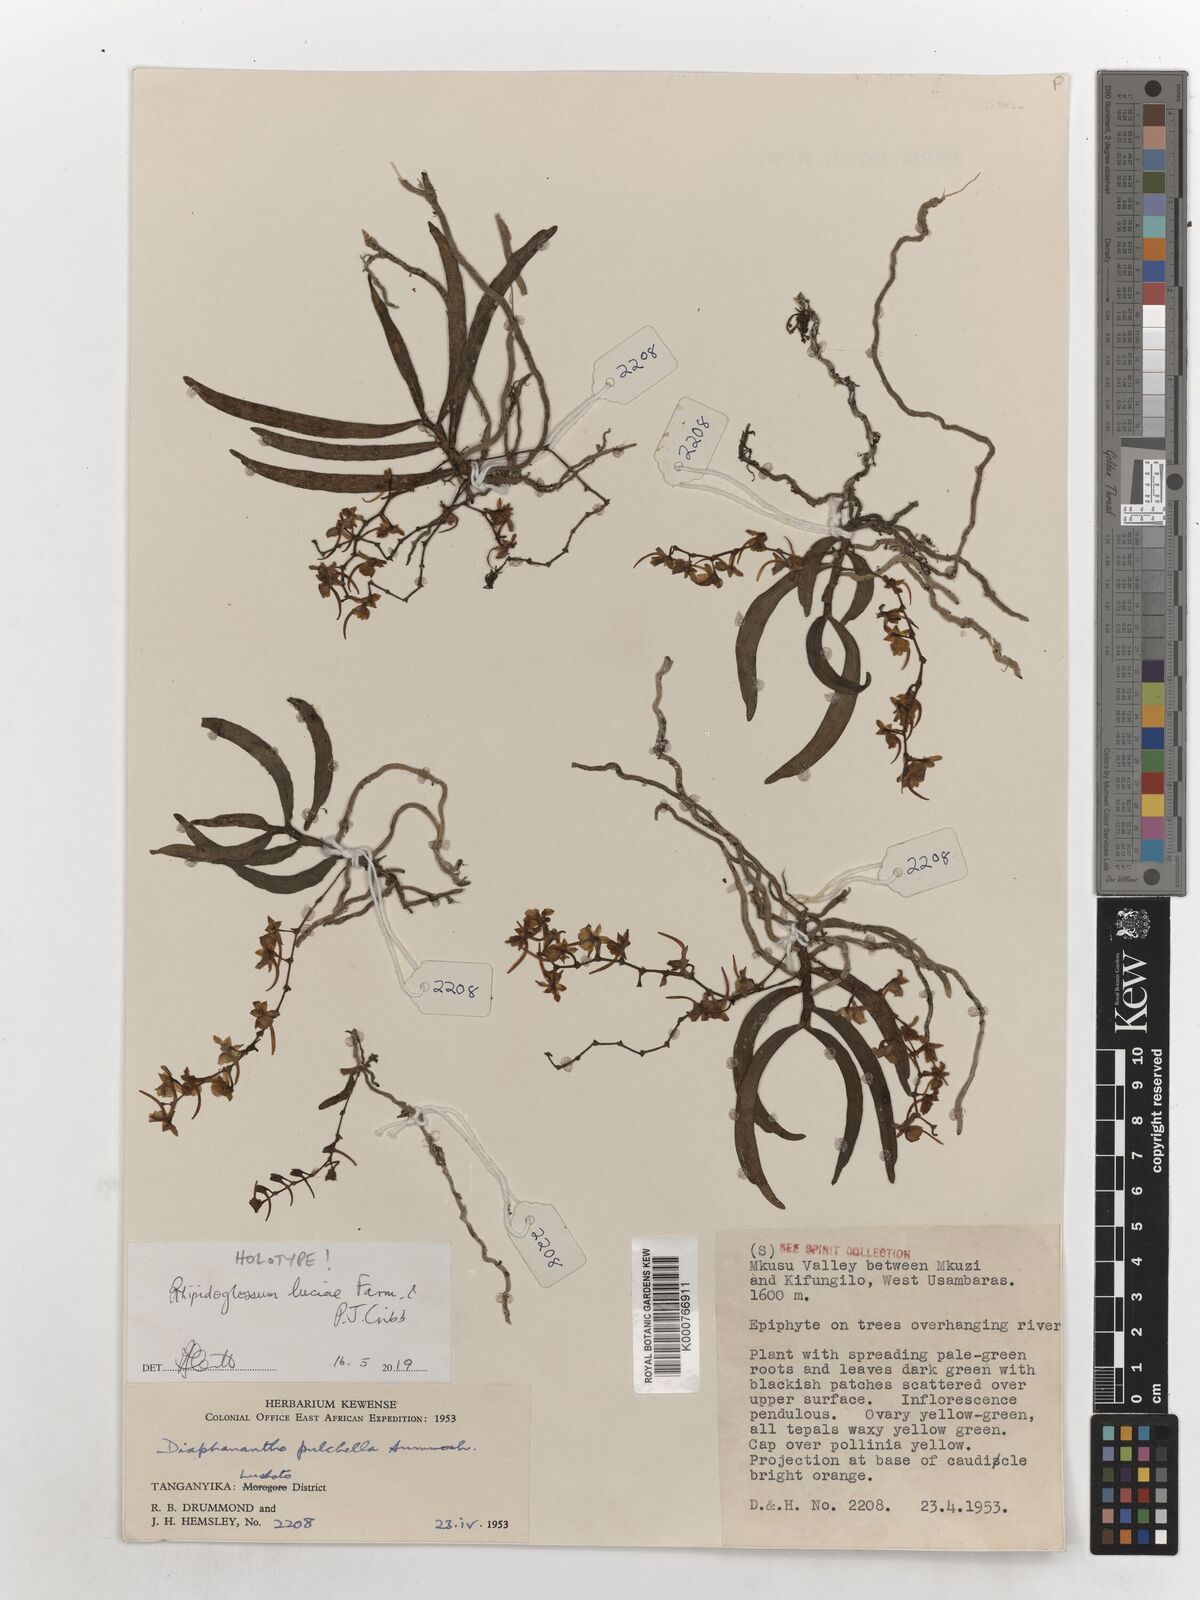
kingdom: Plantae
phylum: Tracheophyta
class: Liliopsida
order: Asparagales
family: Orchidaceae
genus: Rhipidoglossum
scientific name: Rhipidoglossum
